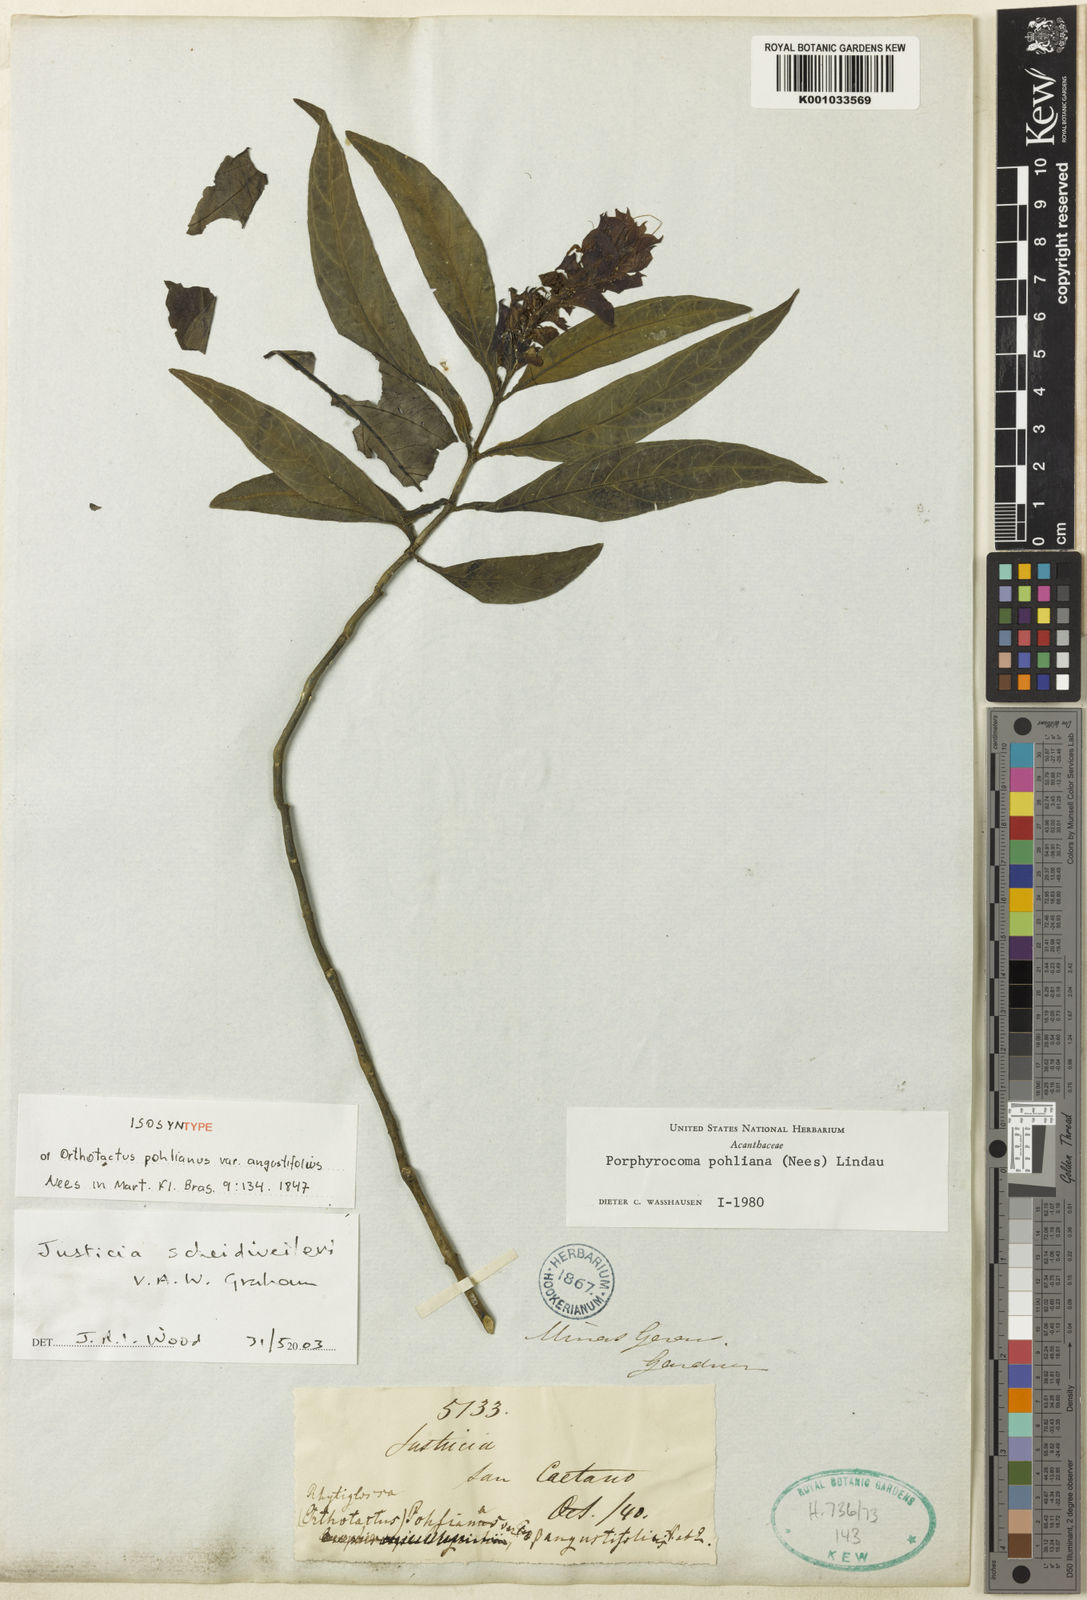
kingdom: Plantae
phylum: Tracheophyta
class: Magnoliopsida
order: Lamiales
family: Acanthaceae
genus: Justicia
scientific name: Justicia scheidweileri
